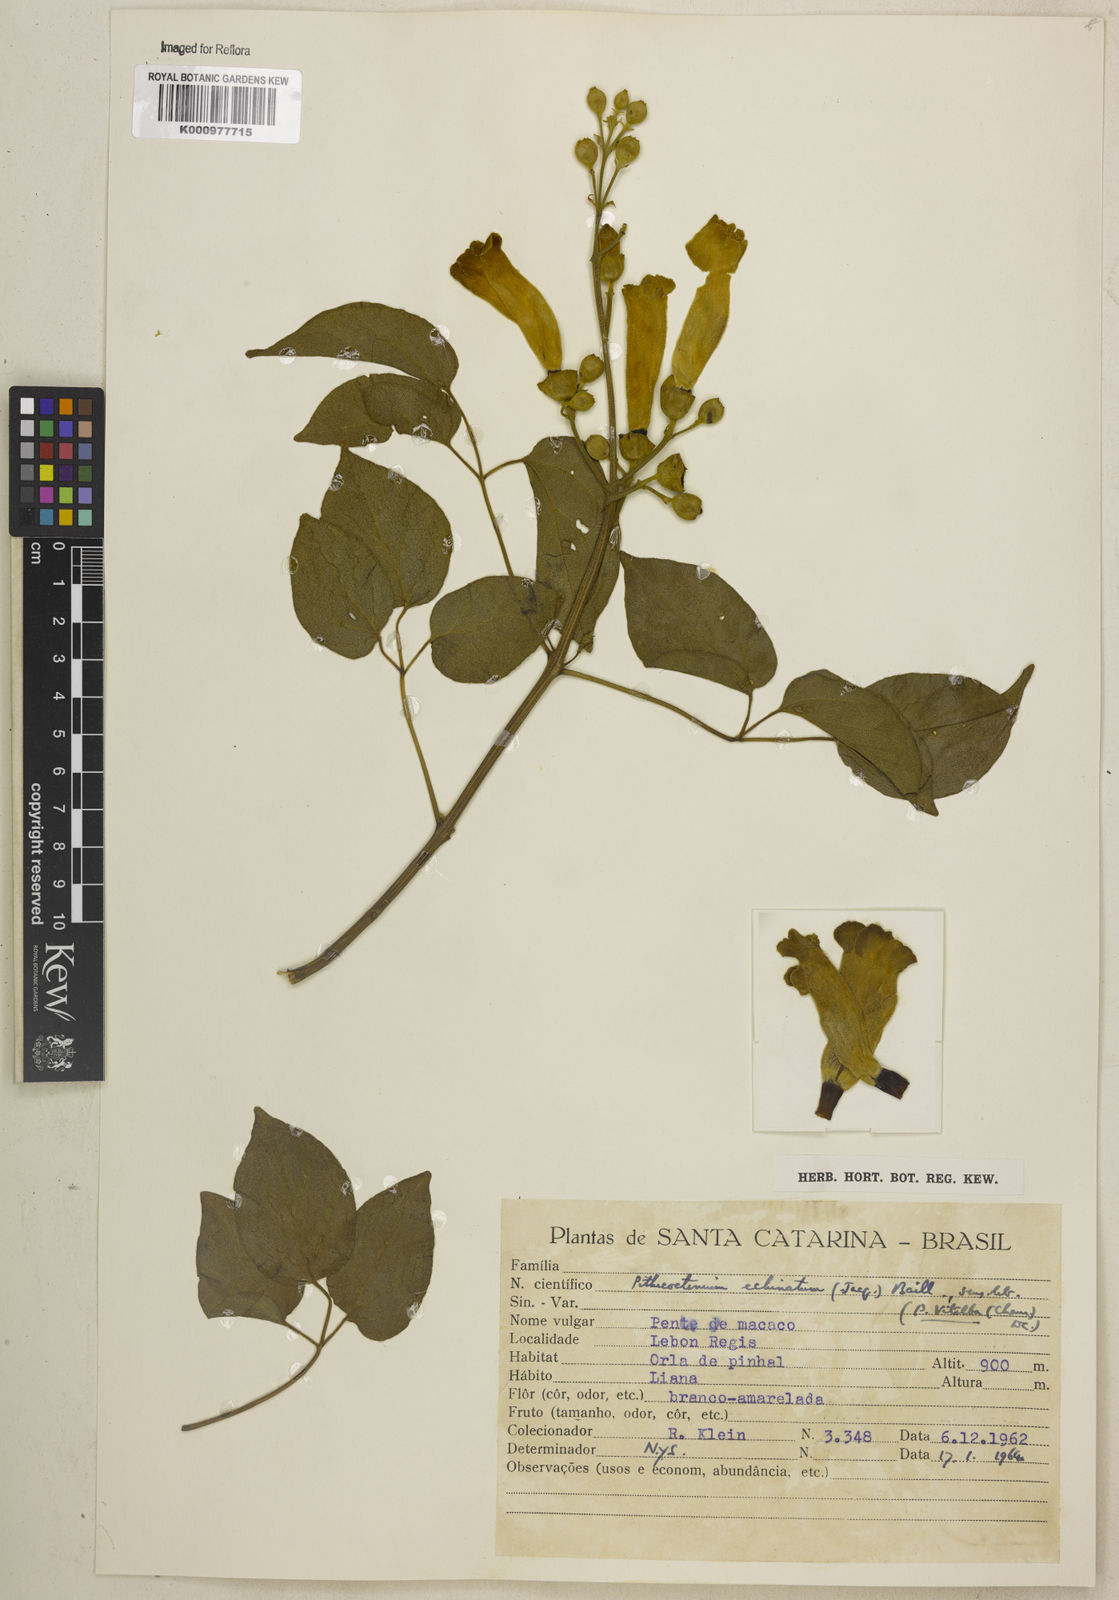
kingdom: Plantae
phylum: Tracheophyta
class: Magnoliopsida
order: Lamiales
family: Bignoniaceae
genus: Amphilophium
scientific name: Amphilophium crucigerum
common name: Monkey comb
